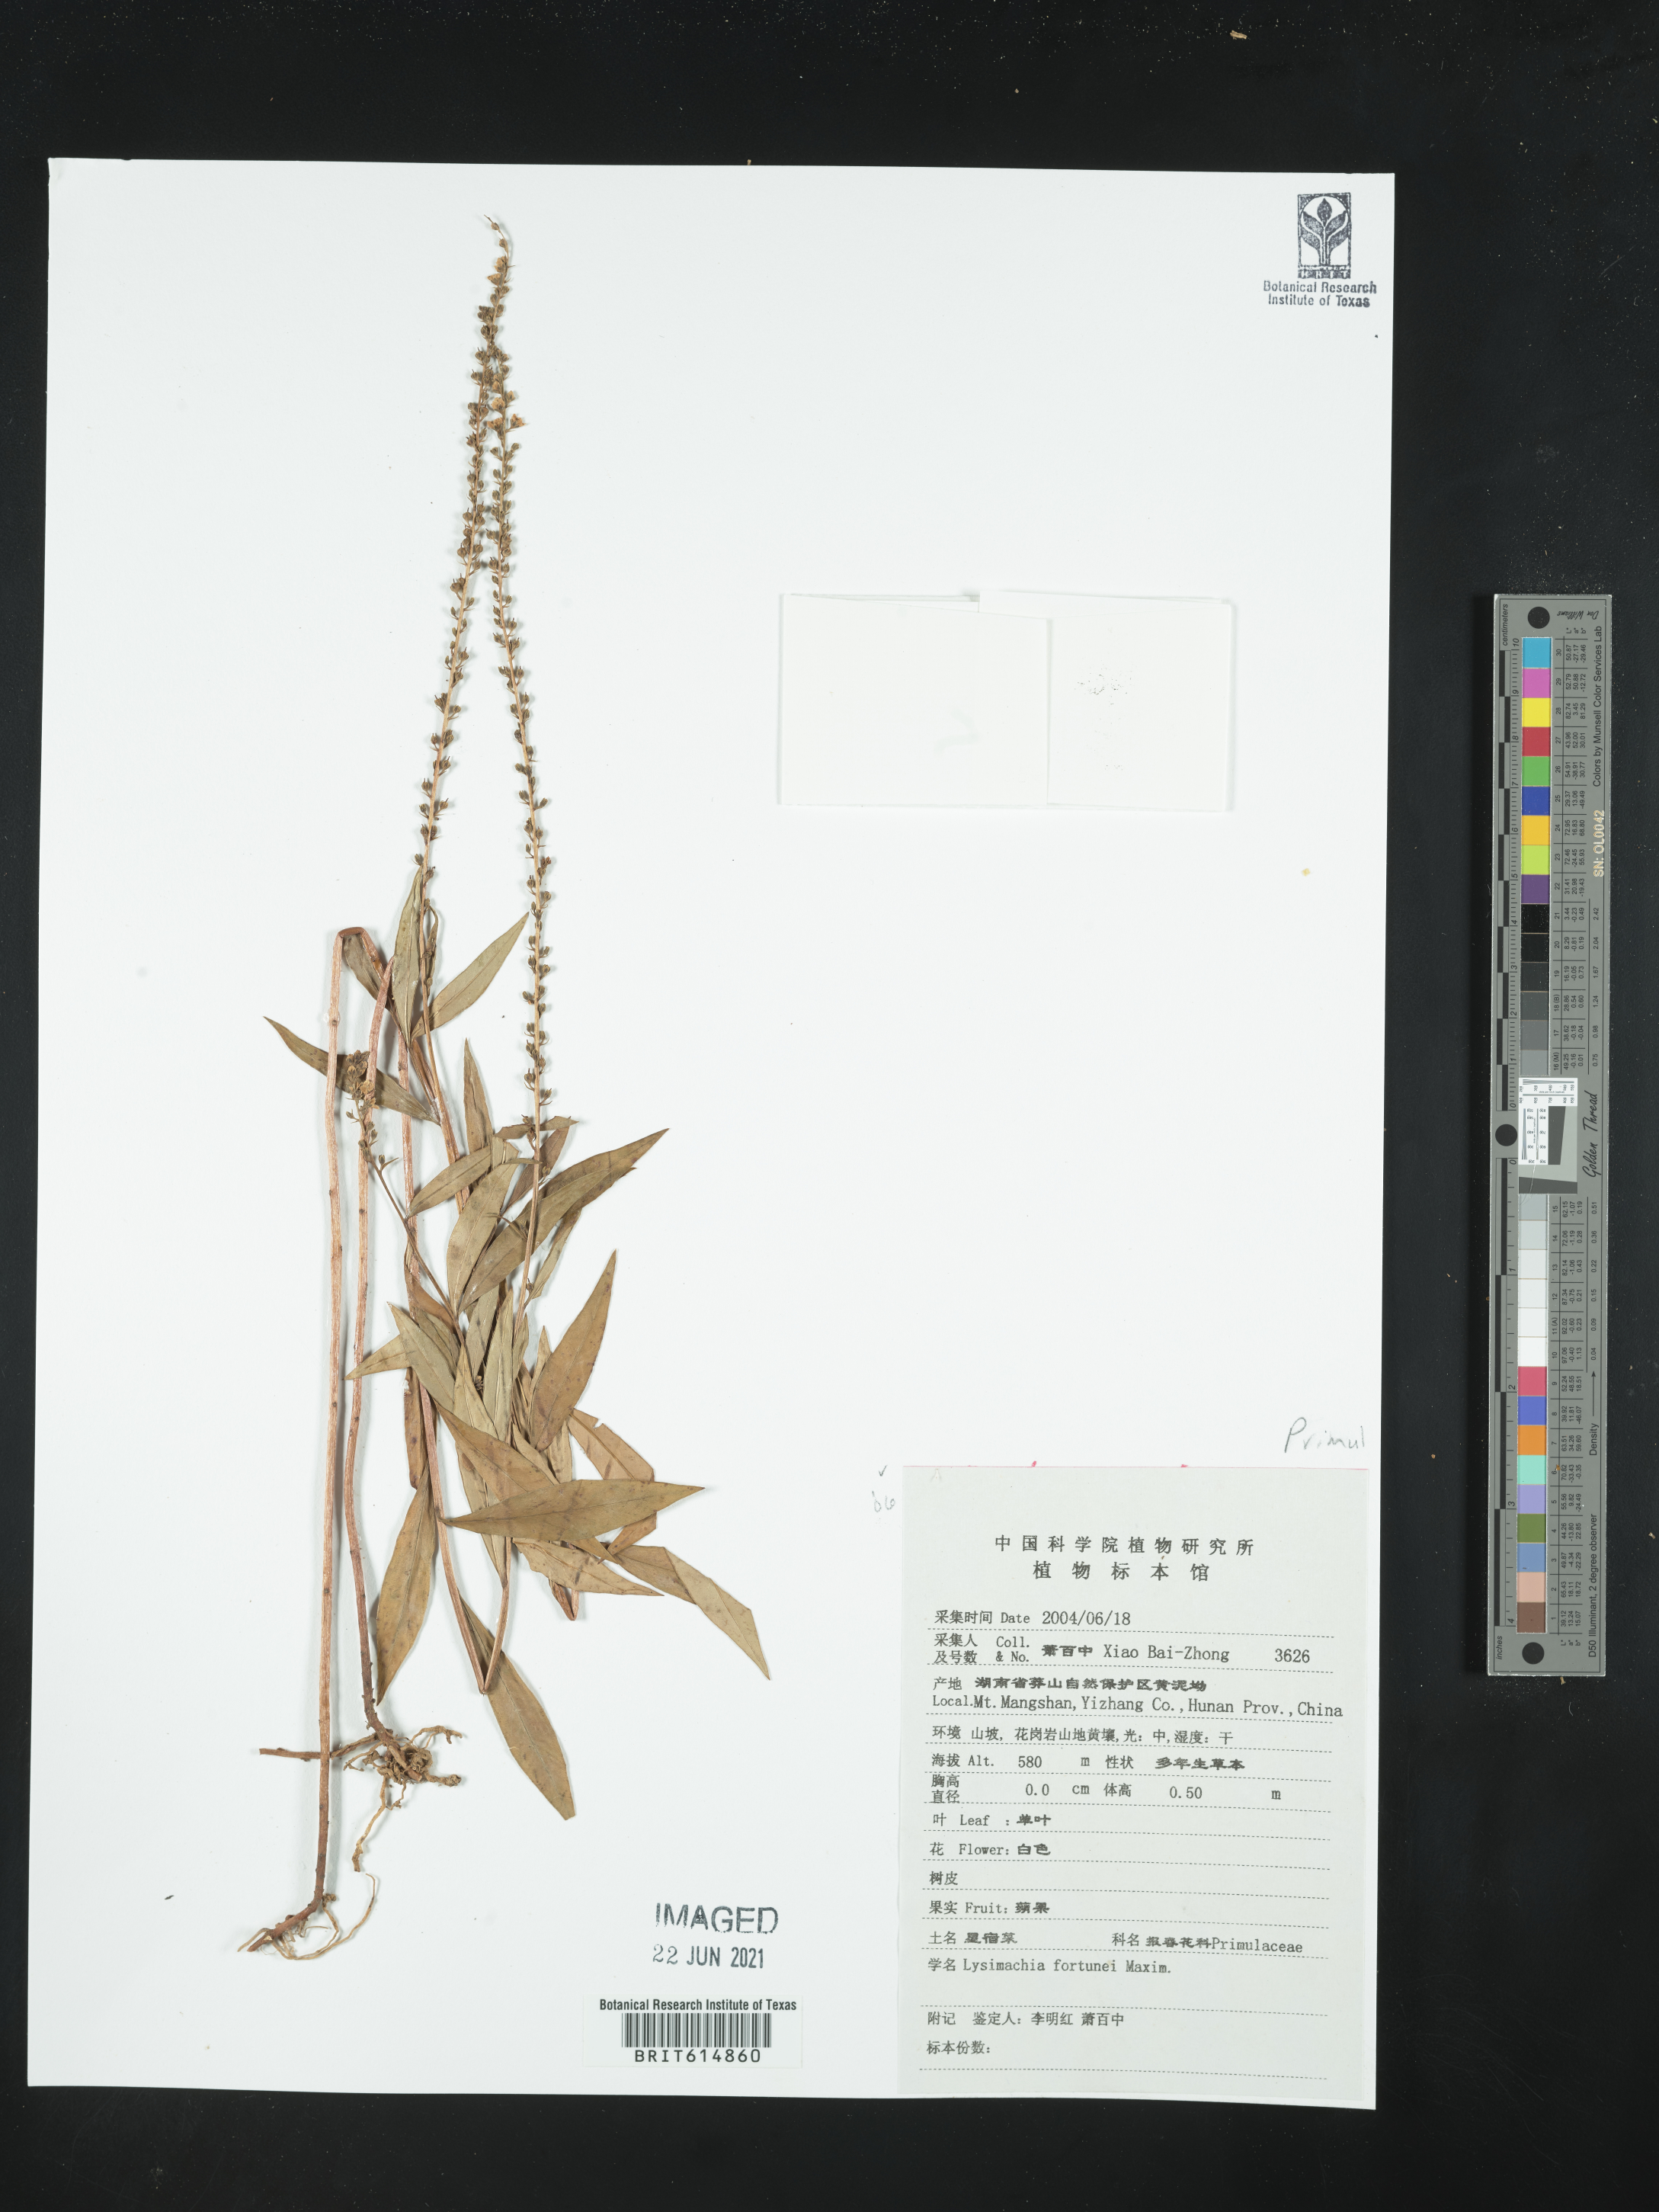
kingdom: Plantae
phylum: Tracheophyta
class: Magnoliopsida
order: Ericales
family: Primulaceae
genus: Lysimachia
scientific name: Lysimachia fortunei
